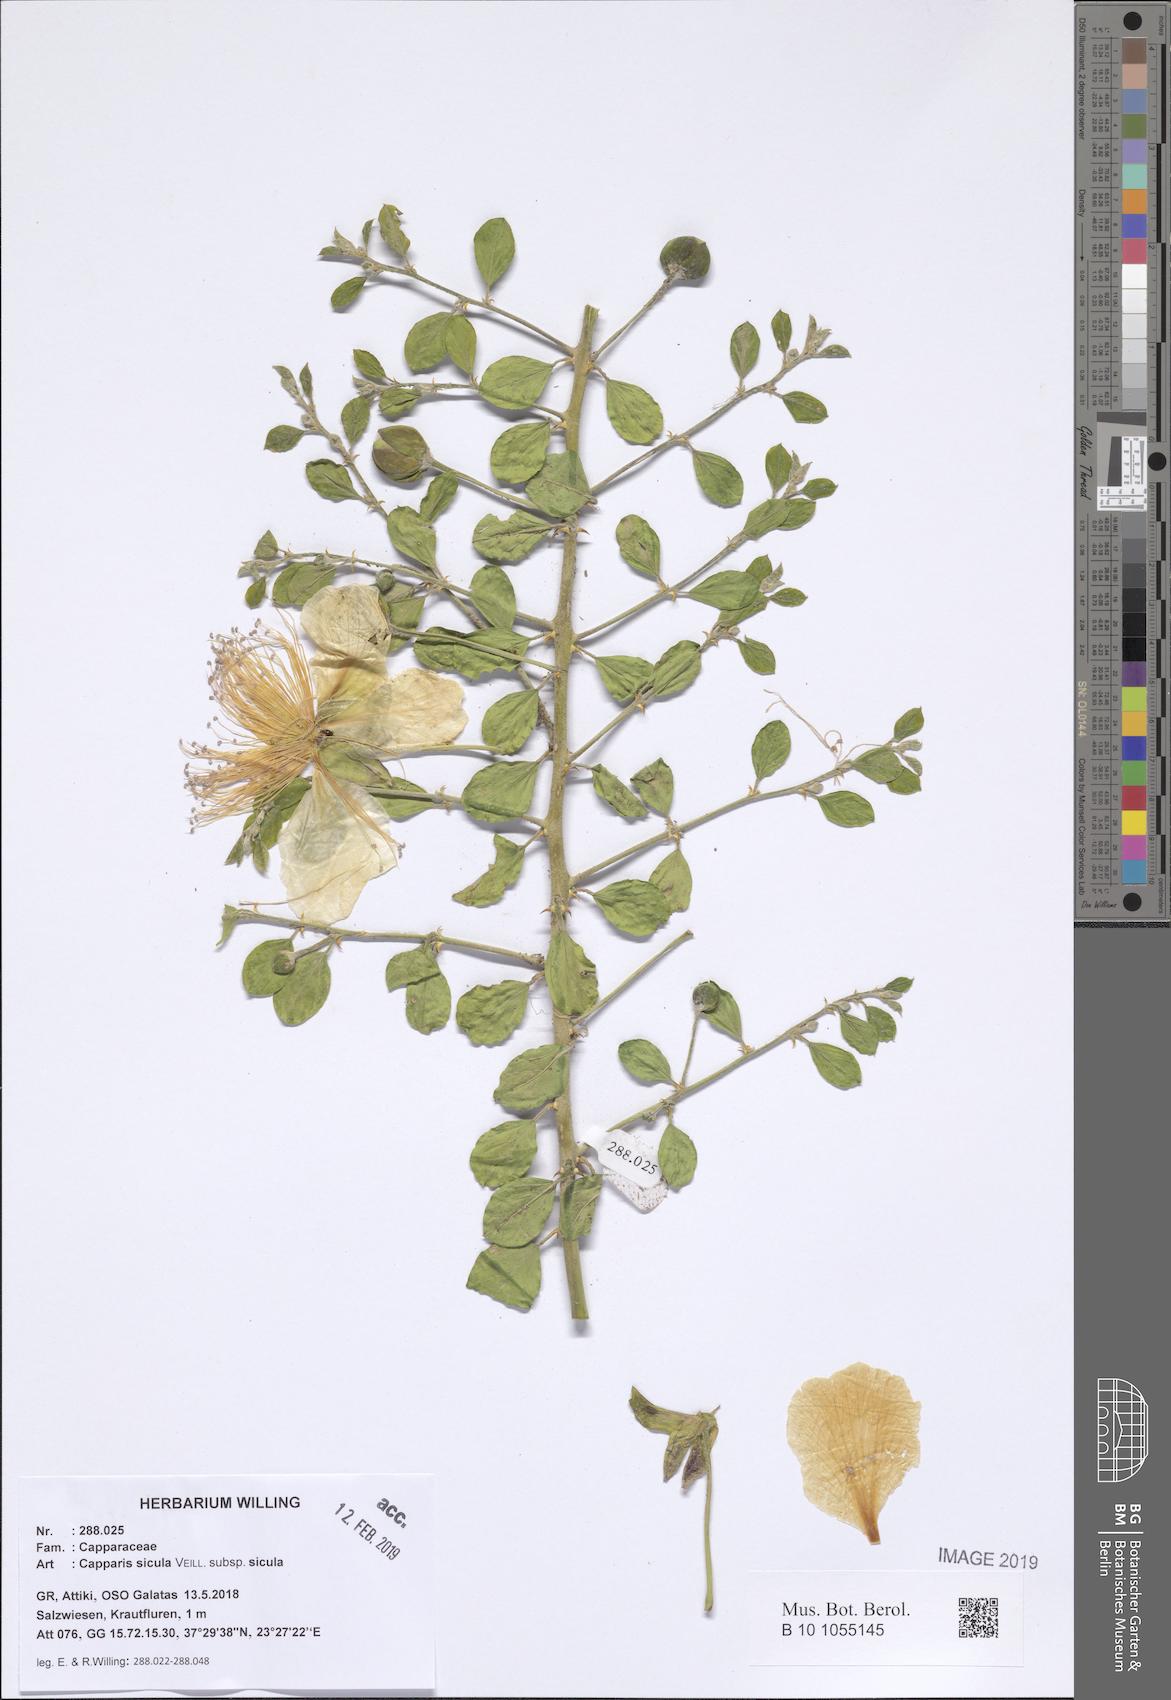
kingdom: Plantae
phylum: Tracheophyta
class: Magnoliopsida
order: Brassicales
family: Capparaceae
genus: Capparis
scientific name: Capparis spinosa
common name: Caper
